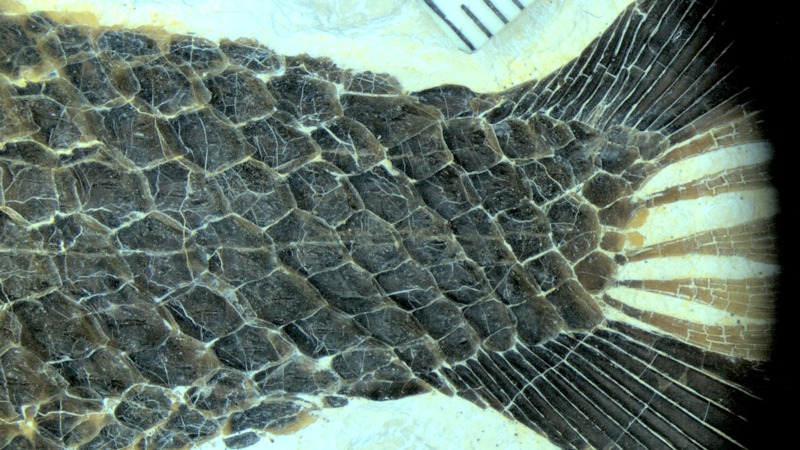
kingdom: Animalia
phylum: Chordata
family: Aspidorhynchidae
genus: Aspidorhynchus
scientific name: Aspidorhynchus sanzenbacheri
